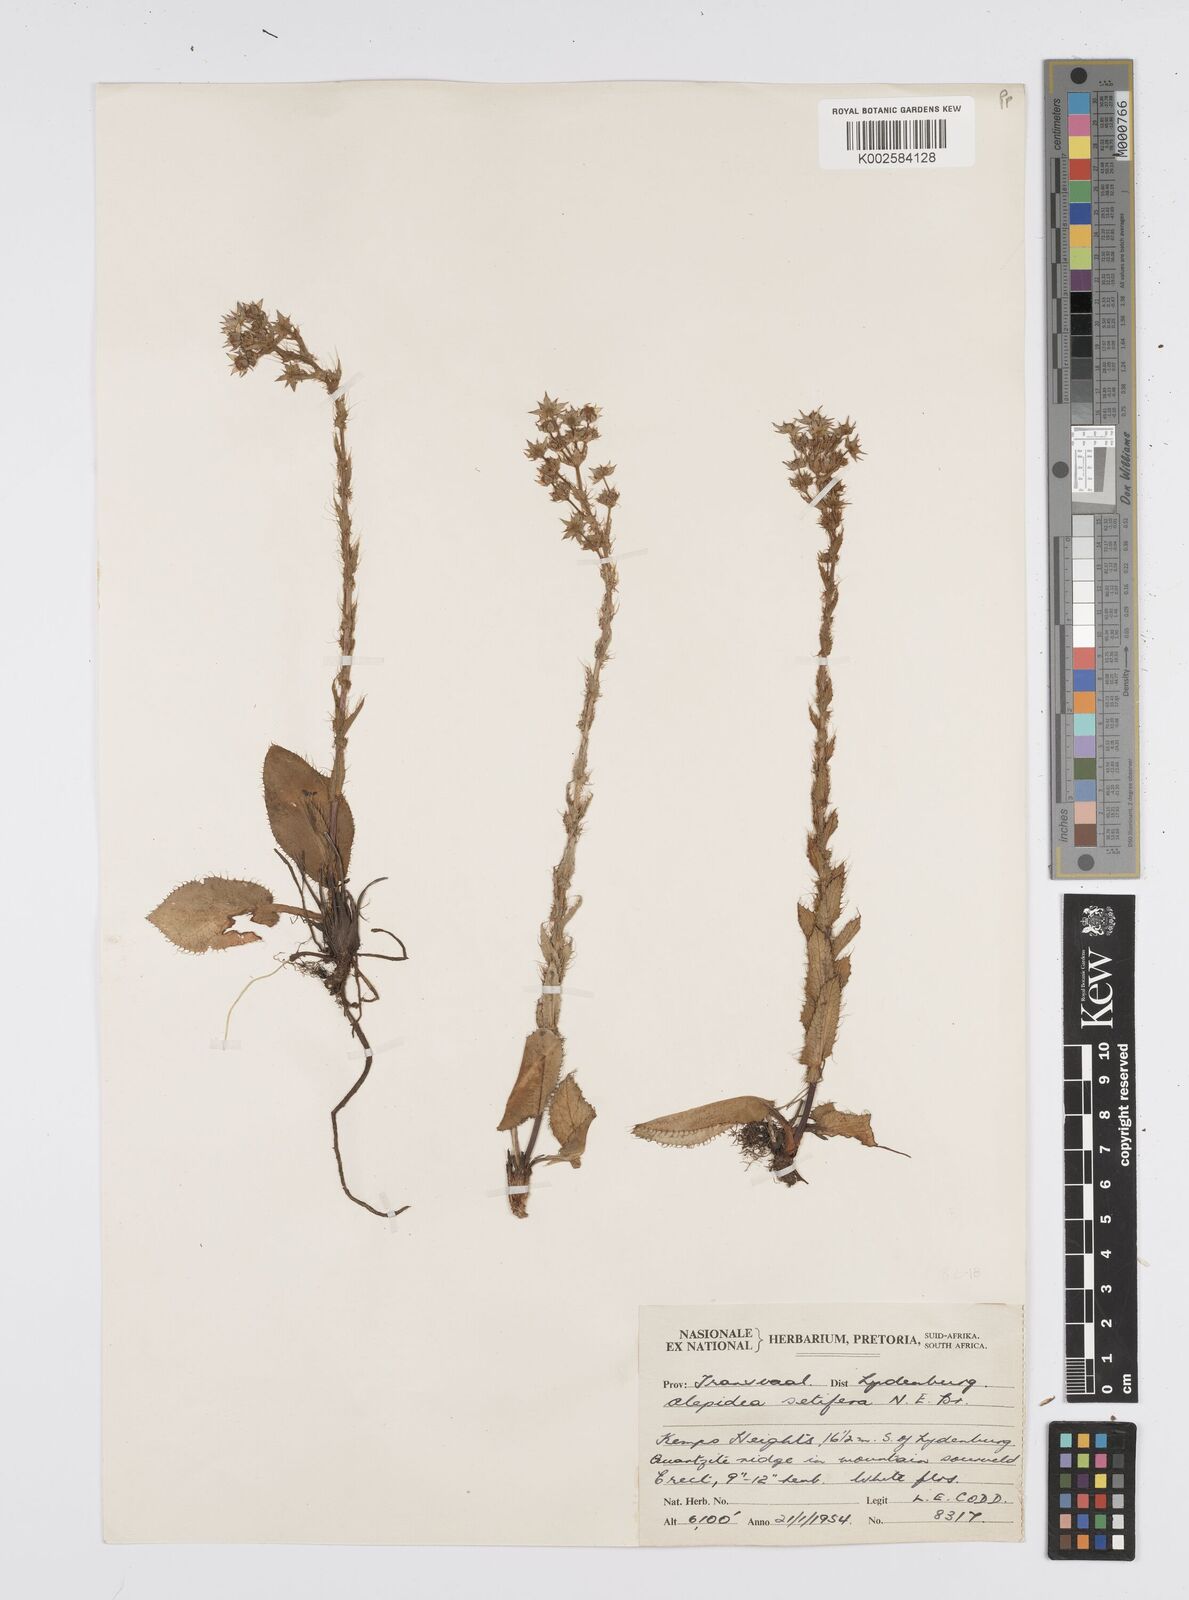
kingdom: Plantae
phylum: Tracheophyta
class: Magnoliopsida
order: Apiales
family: Apiaceae
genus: Alepidea
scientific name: Alepidea setifera
